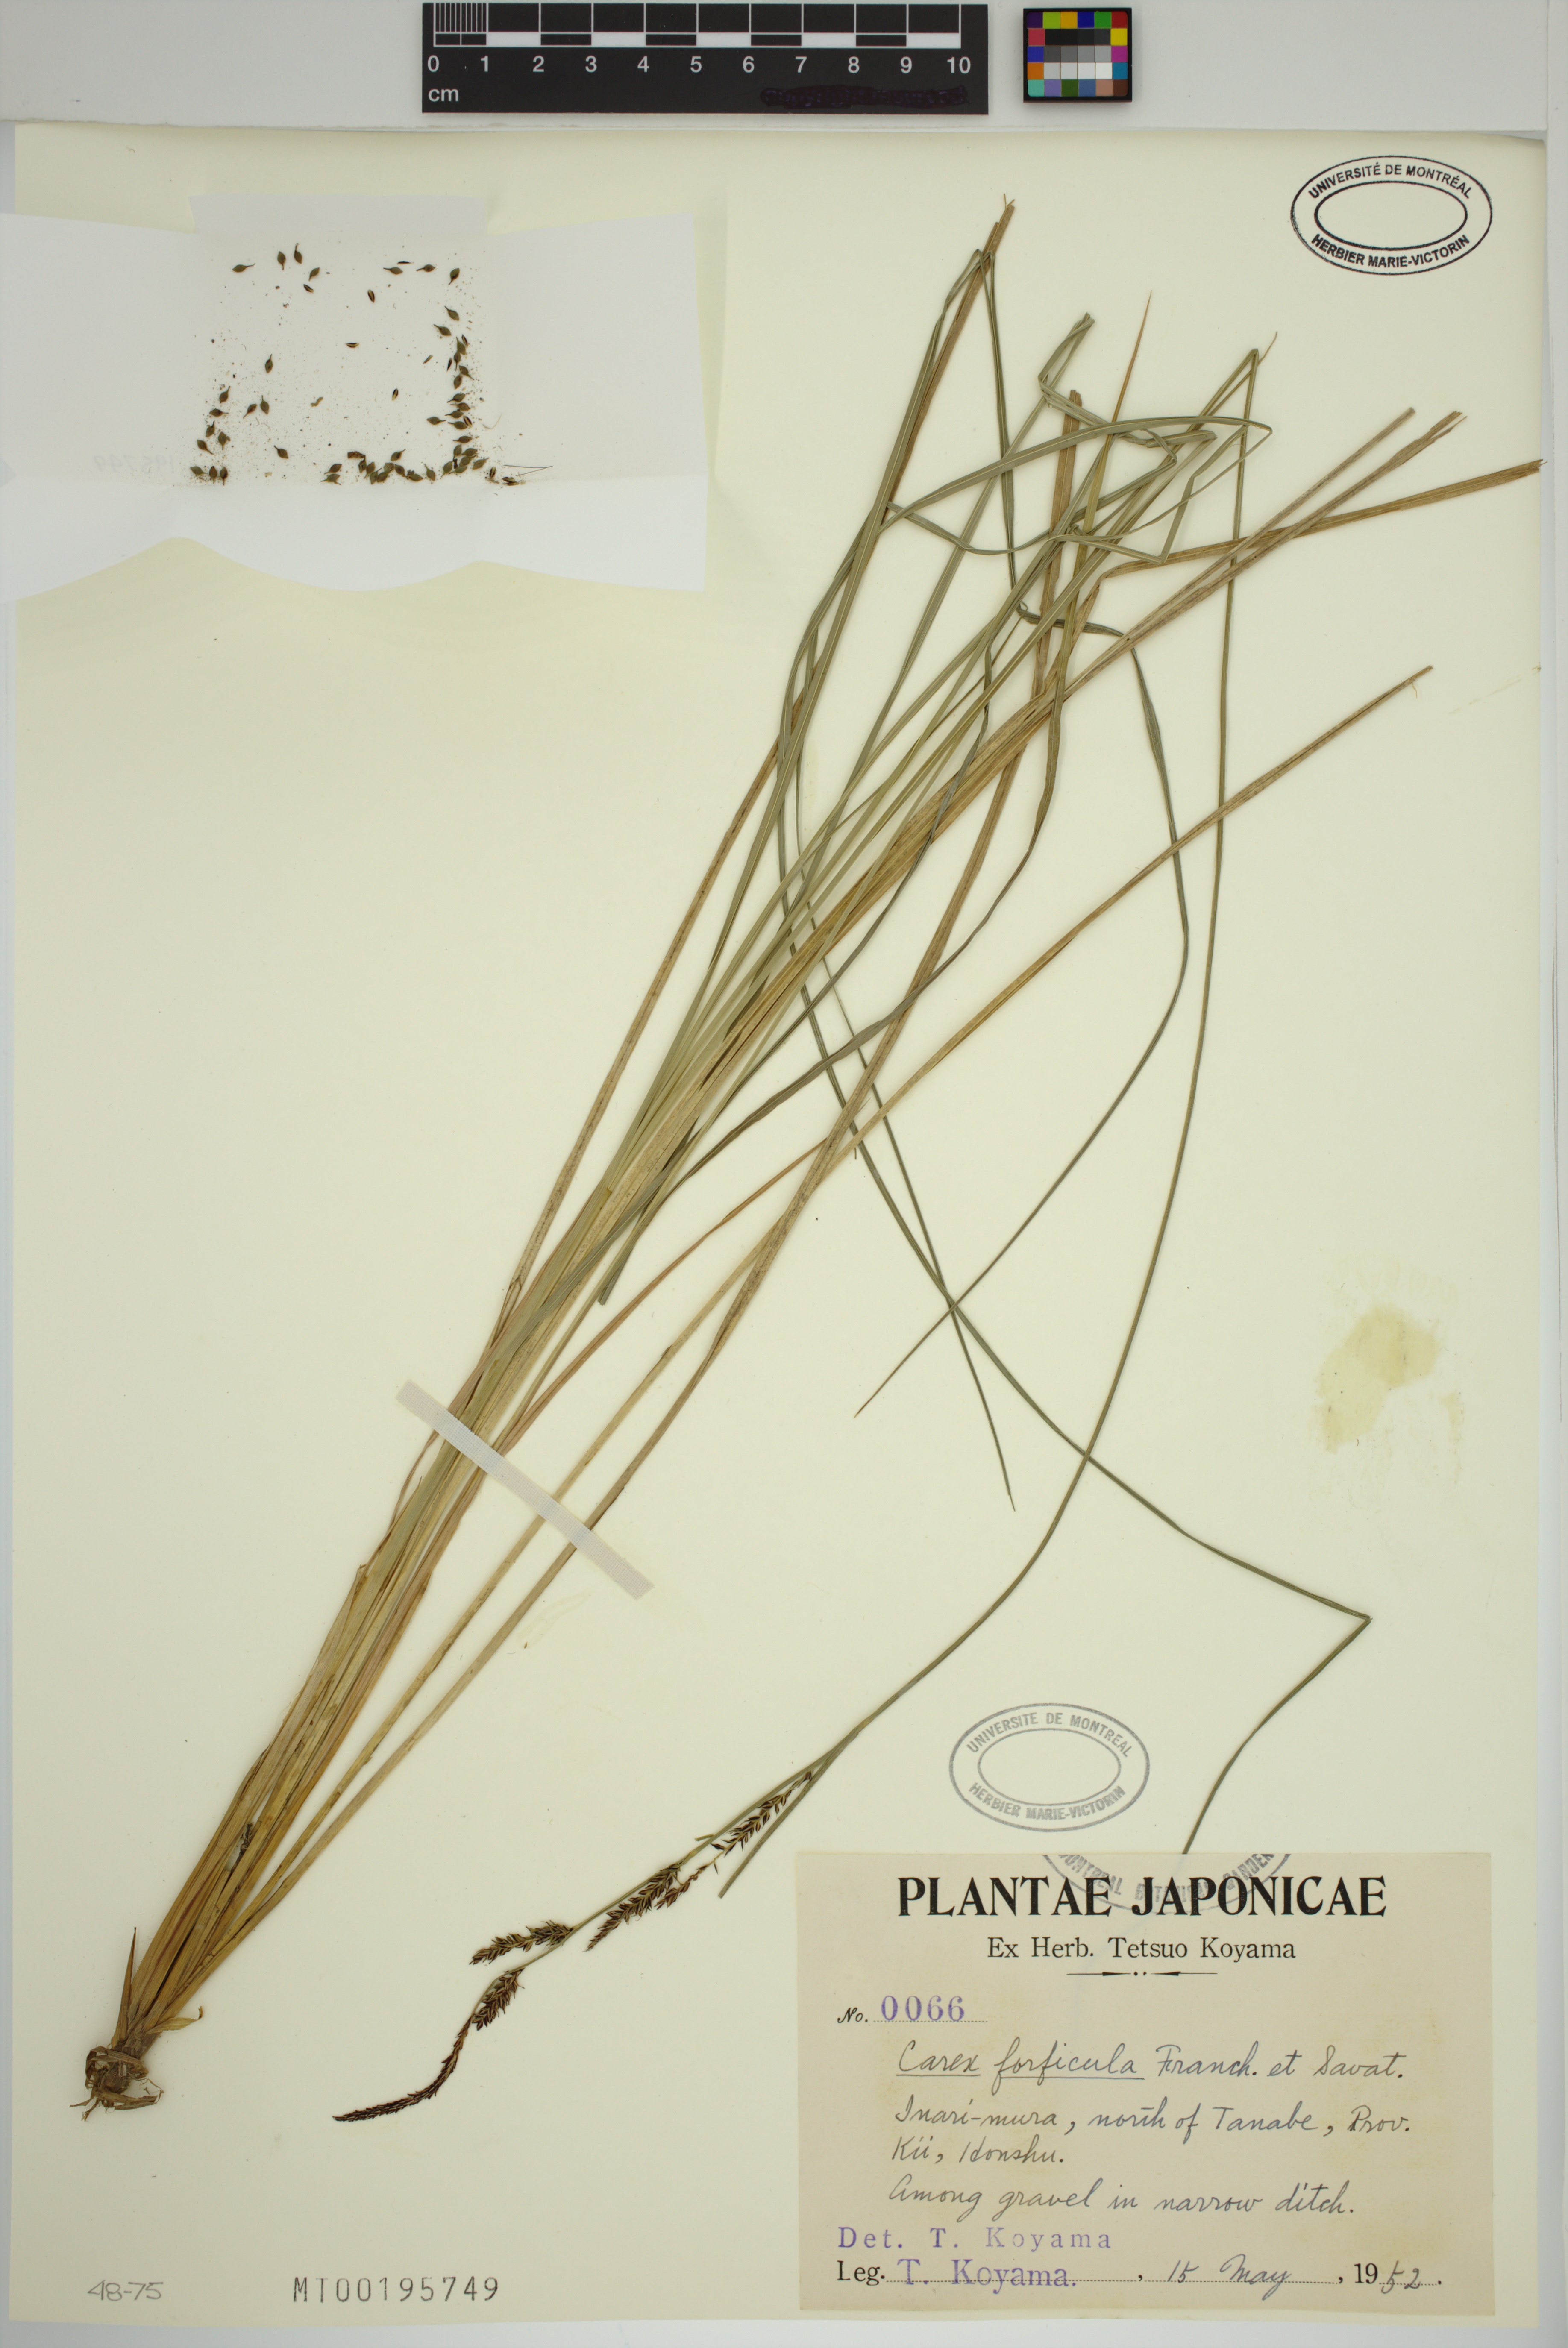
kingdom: Plantae
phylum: Tracheophyta
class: Liliopsida
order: Poales
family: Cyperaceae
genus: Carex
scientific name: Carex forficula
